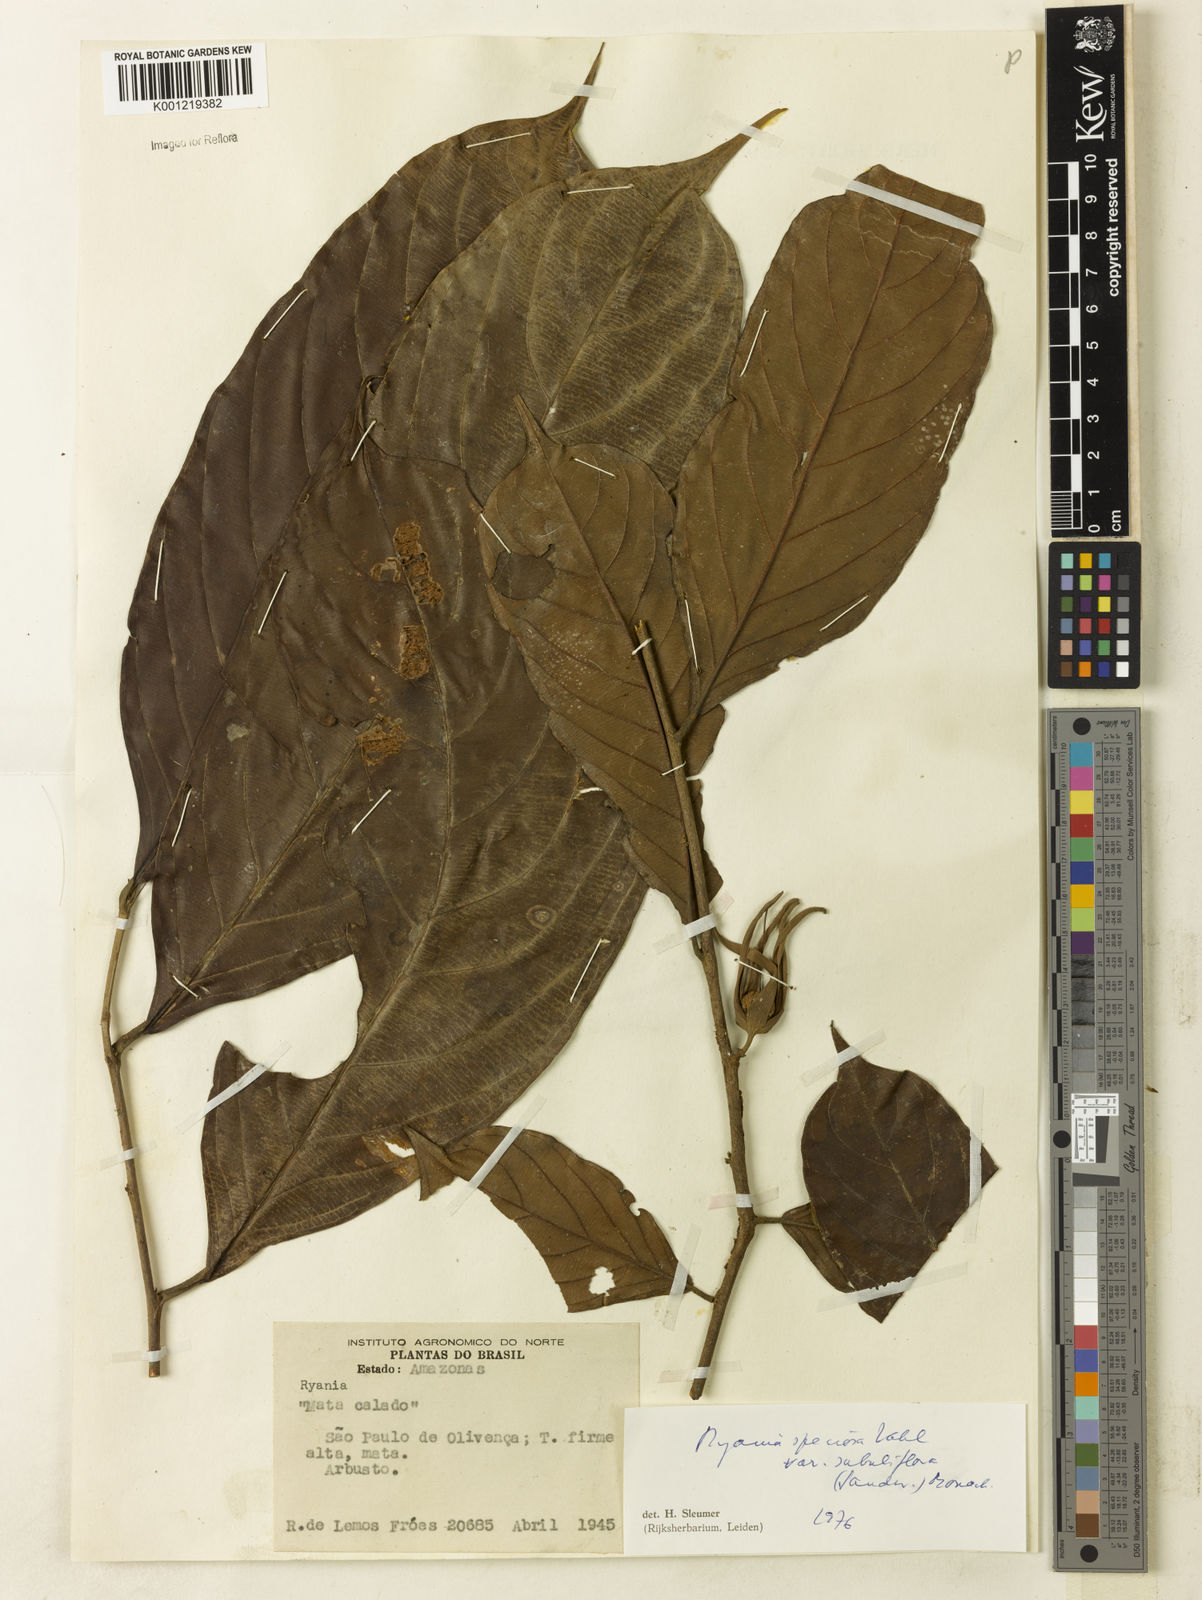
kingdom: Plantae
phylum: Tracheophyta
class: Magnoliopsida
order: Malpighiales
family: Salicaceae
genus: Ryania
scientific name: Ryania speciosa
